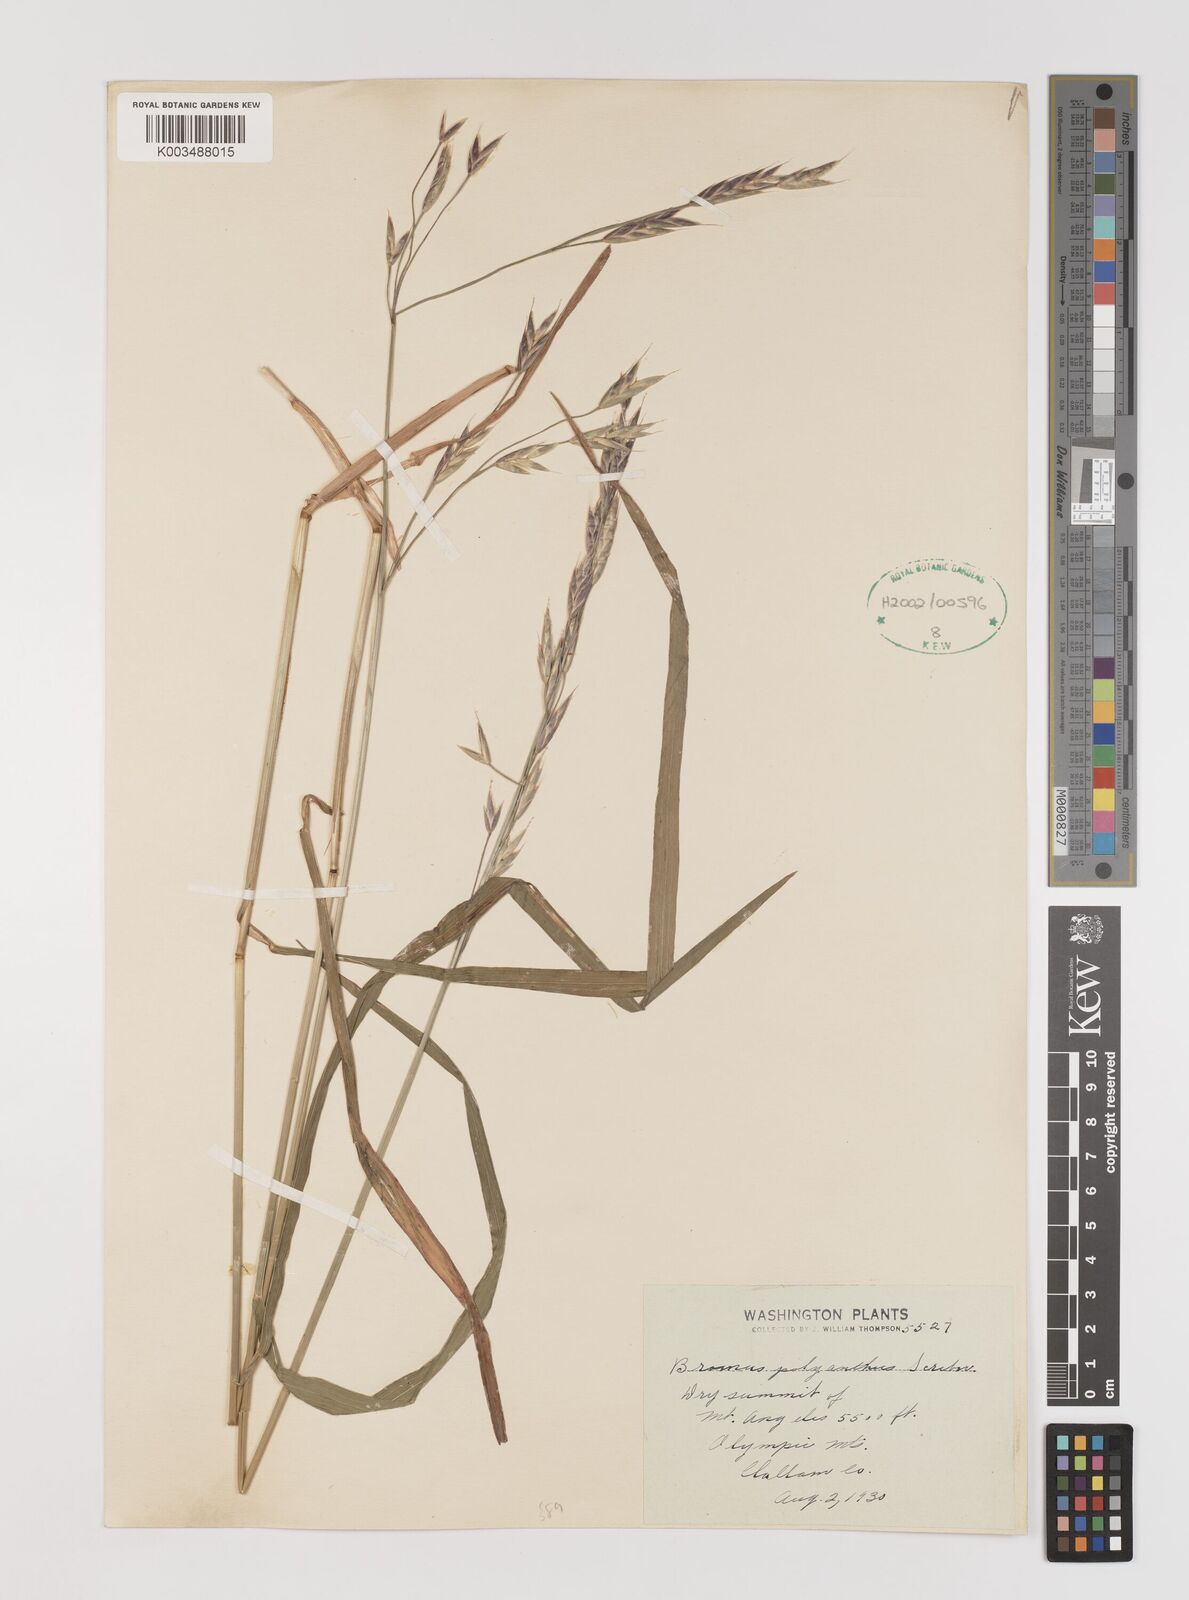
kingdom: Plantae
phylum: Tracheophyta
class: Liliopsida
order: Poales
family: Poaceae
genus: Bromus
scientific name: Bromus polyanthus
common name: Great basin brome
